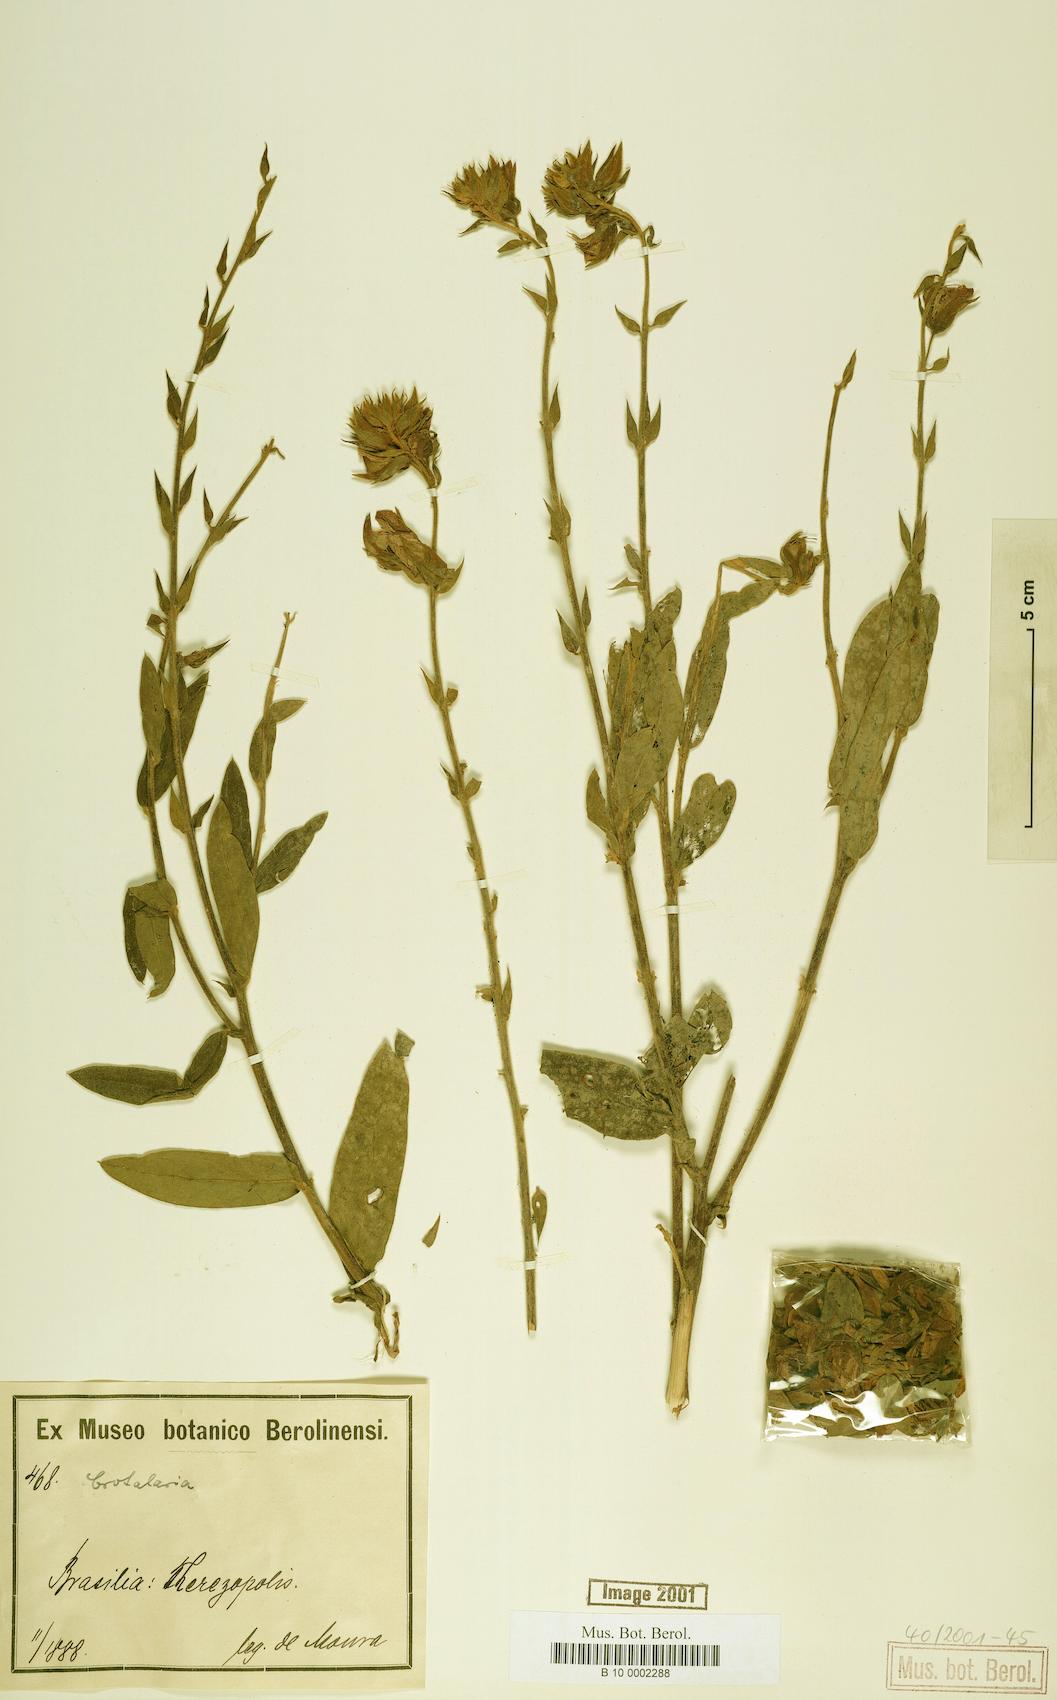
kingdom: Plantae
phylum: Tracheophyta
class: Magnoliopsida
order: Fabales
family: Fabaceae
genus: Crotalaria
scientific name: Crotalaria martiana
